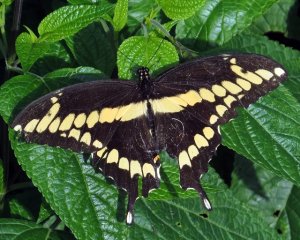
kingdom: Animalia
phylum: Arthropoda
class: Insecta
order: Lepidoptera
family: Papilionidae
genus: Papilio
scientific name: Papilio cresphontes
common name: Eastern Giant Swallowtail
